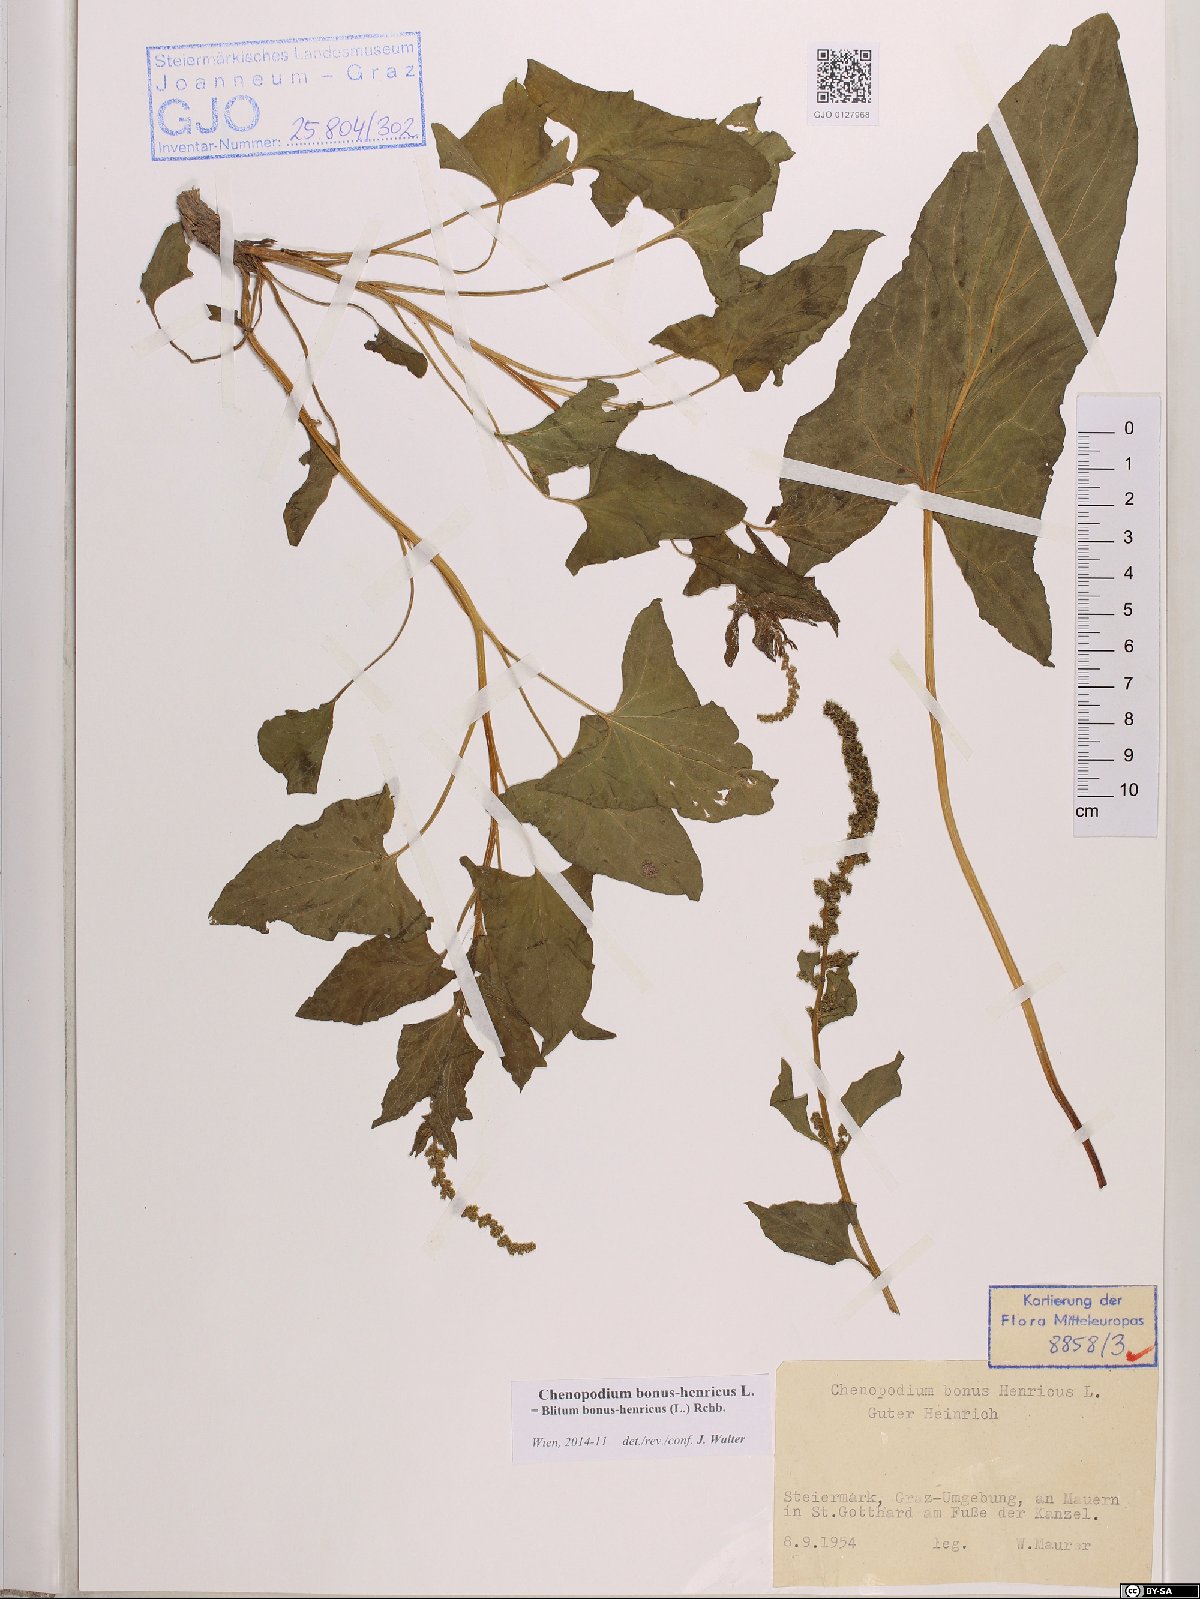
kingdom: Plantae
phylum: Tracheophyta
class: Magnoliopsida
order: Caryophyllales
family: Amaranthaceae
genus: Blitum
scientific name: Blitum bonus-henricus
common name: Good king henry
